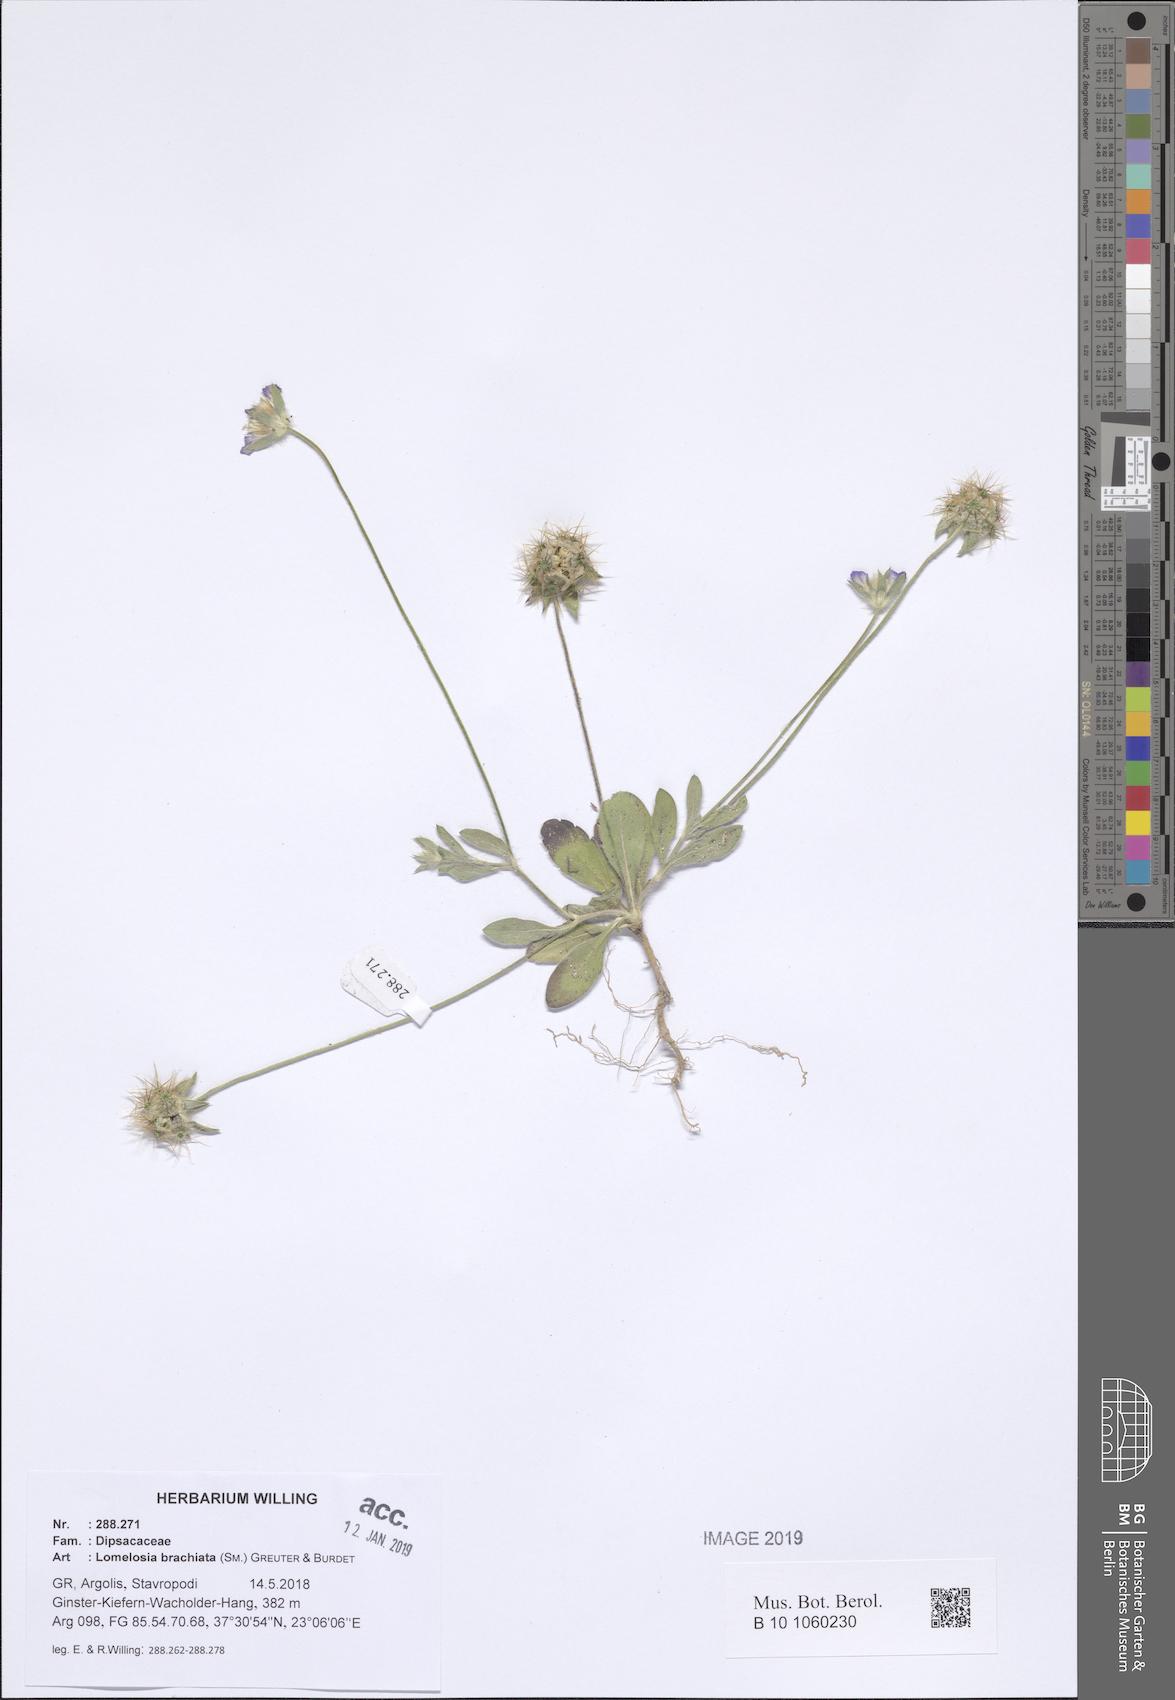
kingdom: Plantae
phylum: Tracheophyta
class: Magnoliopsida
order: Dipsacales
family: Caprifoliaceae
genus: Lomelosia
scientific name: Lomelosia brachiata
